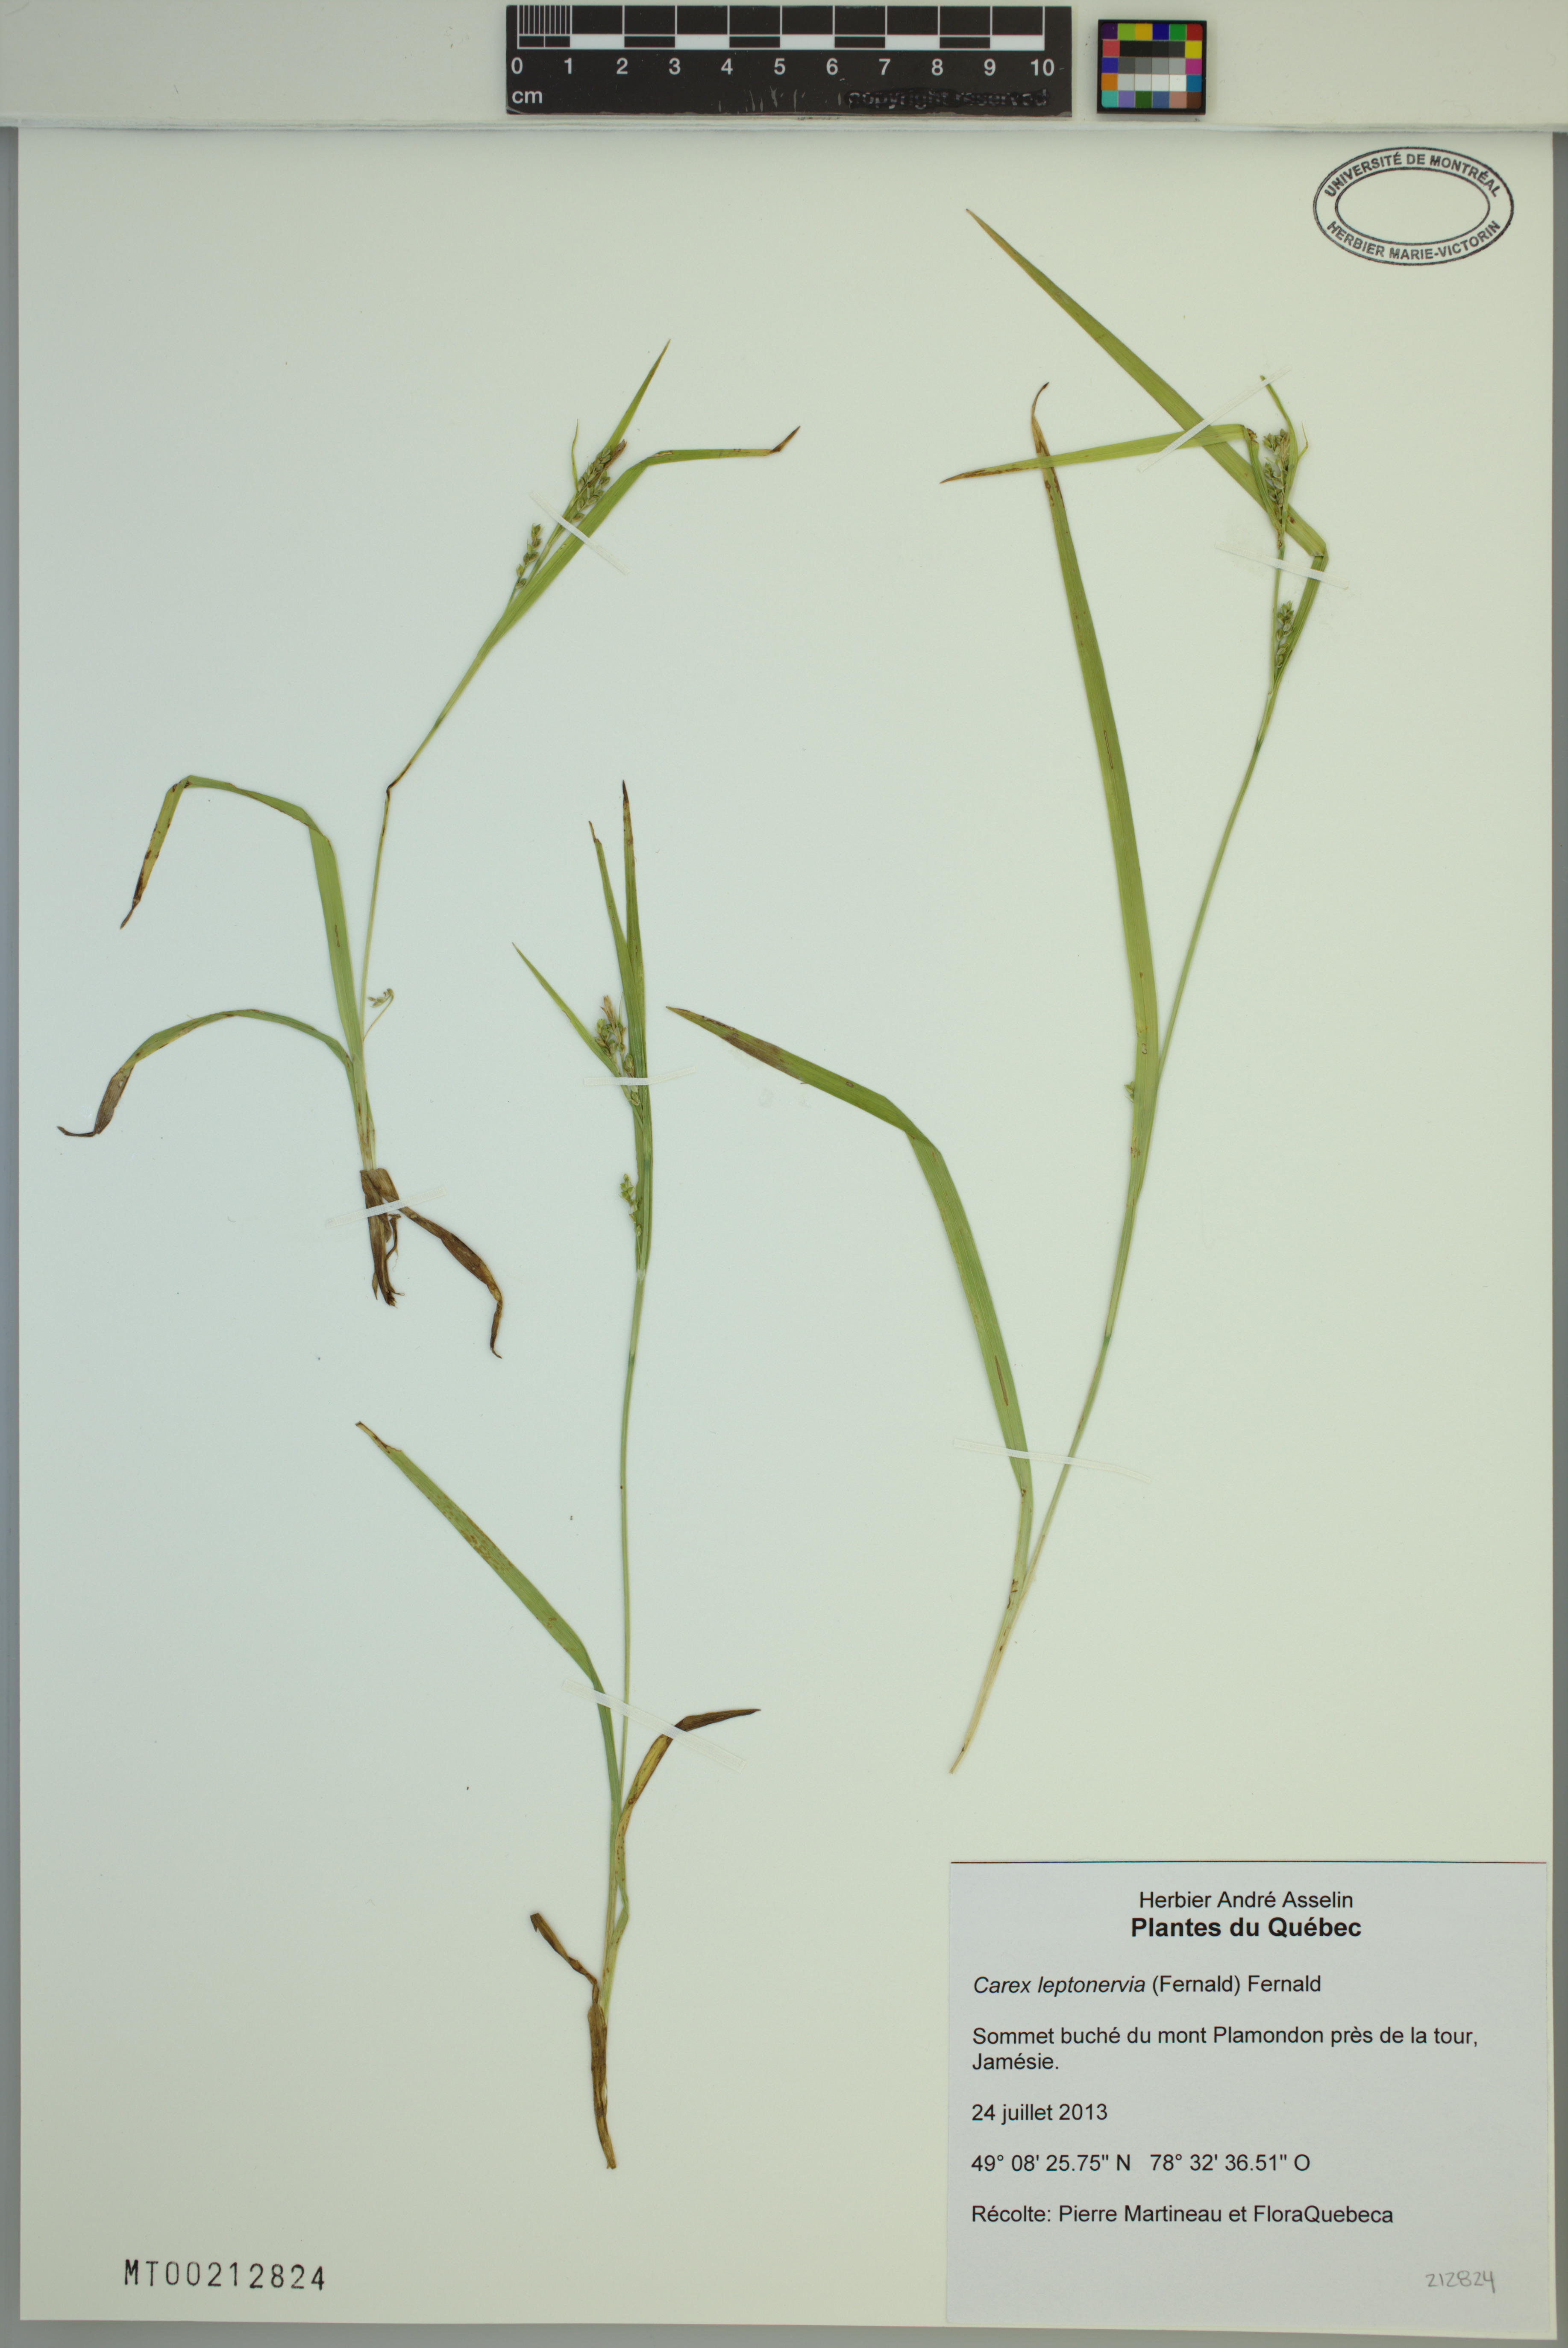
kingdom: Plantae
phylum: Tracheophyta
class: Liliopsida
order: Poales
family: Cyperaceae
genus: Carex
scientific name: Carex leptonervia
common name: Few-nerved wood sedge
